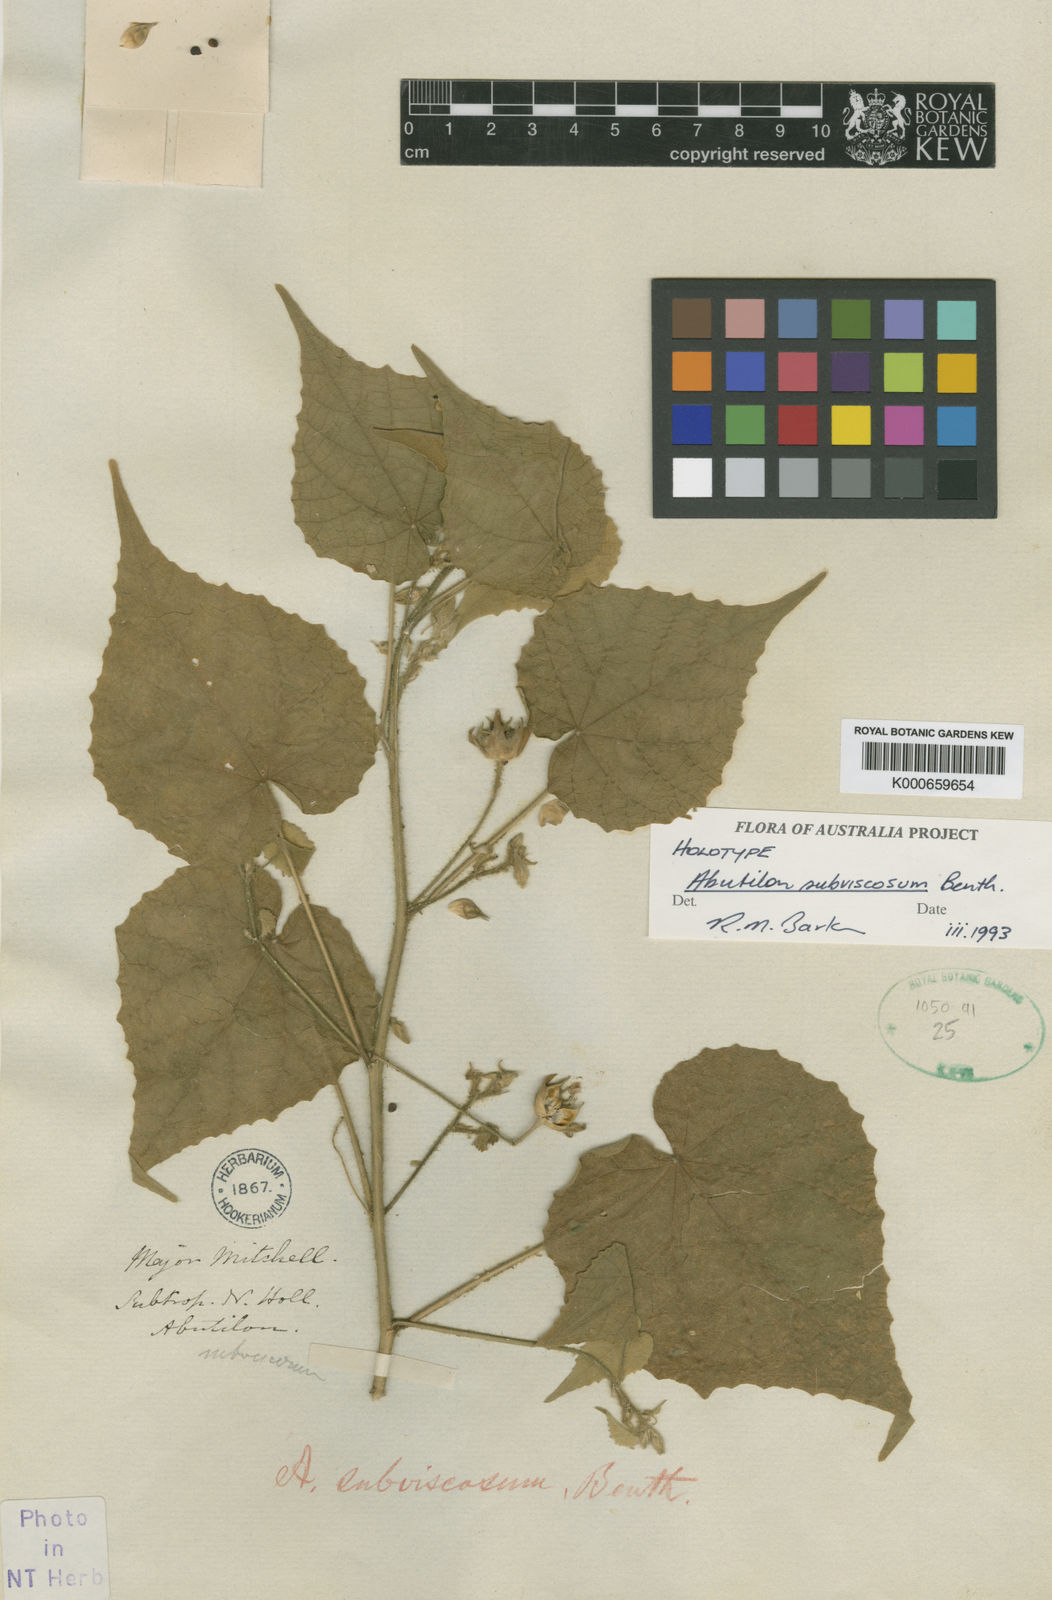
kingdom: Plantae
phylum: Tracheophyta
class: Magnoliopsida
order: Malvales
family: Malvaceae
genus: Abutilon
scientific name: Abutilon subviscosum
